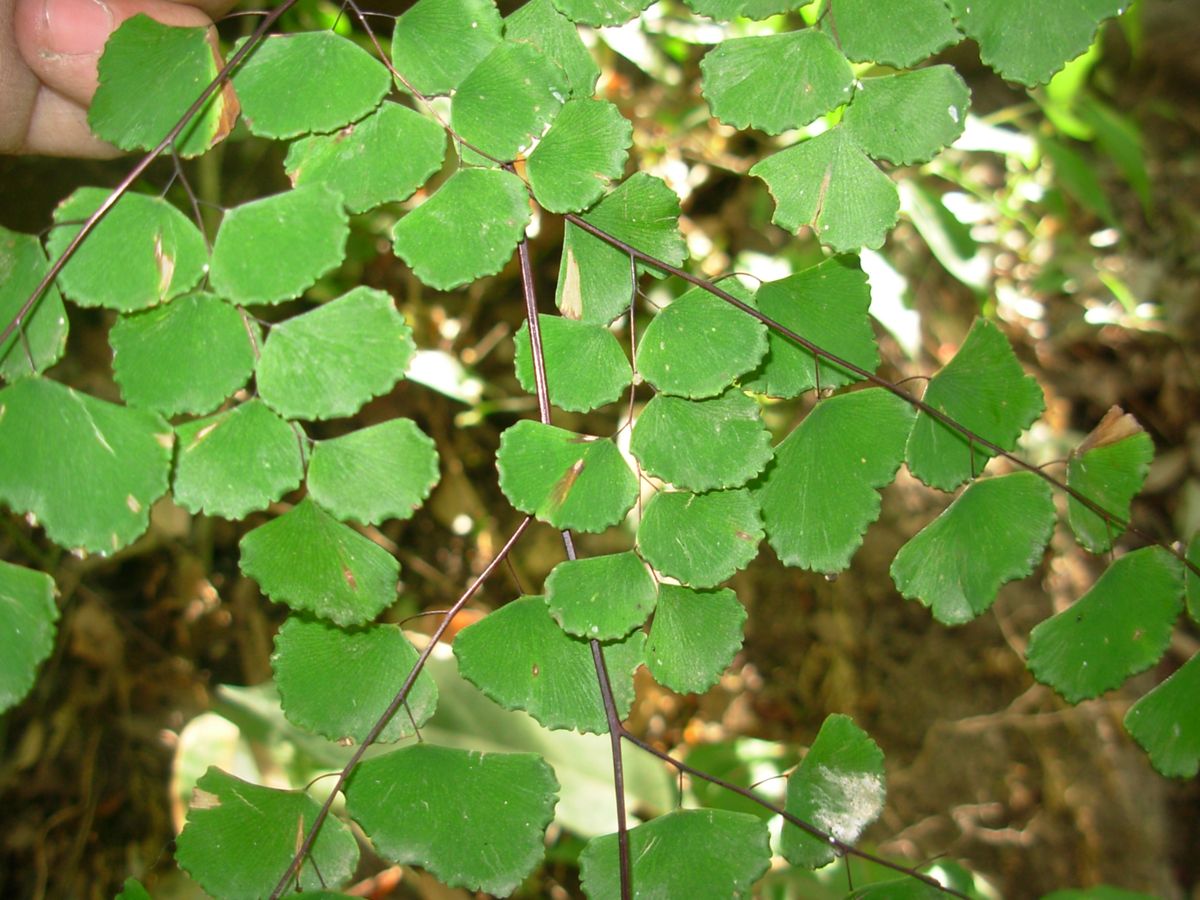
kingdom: Plantae
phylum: Tracheophyta
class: Polypodiopsida
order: Polypodiales
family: Pteridaceae
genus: Adiantum
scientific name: Adiantum amplum
